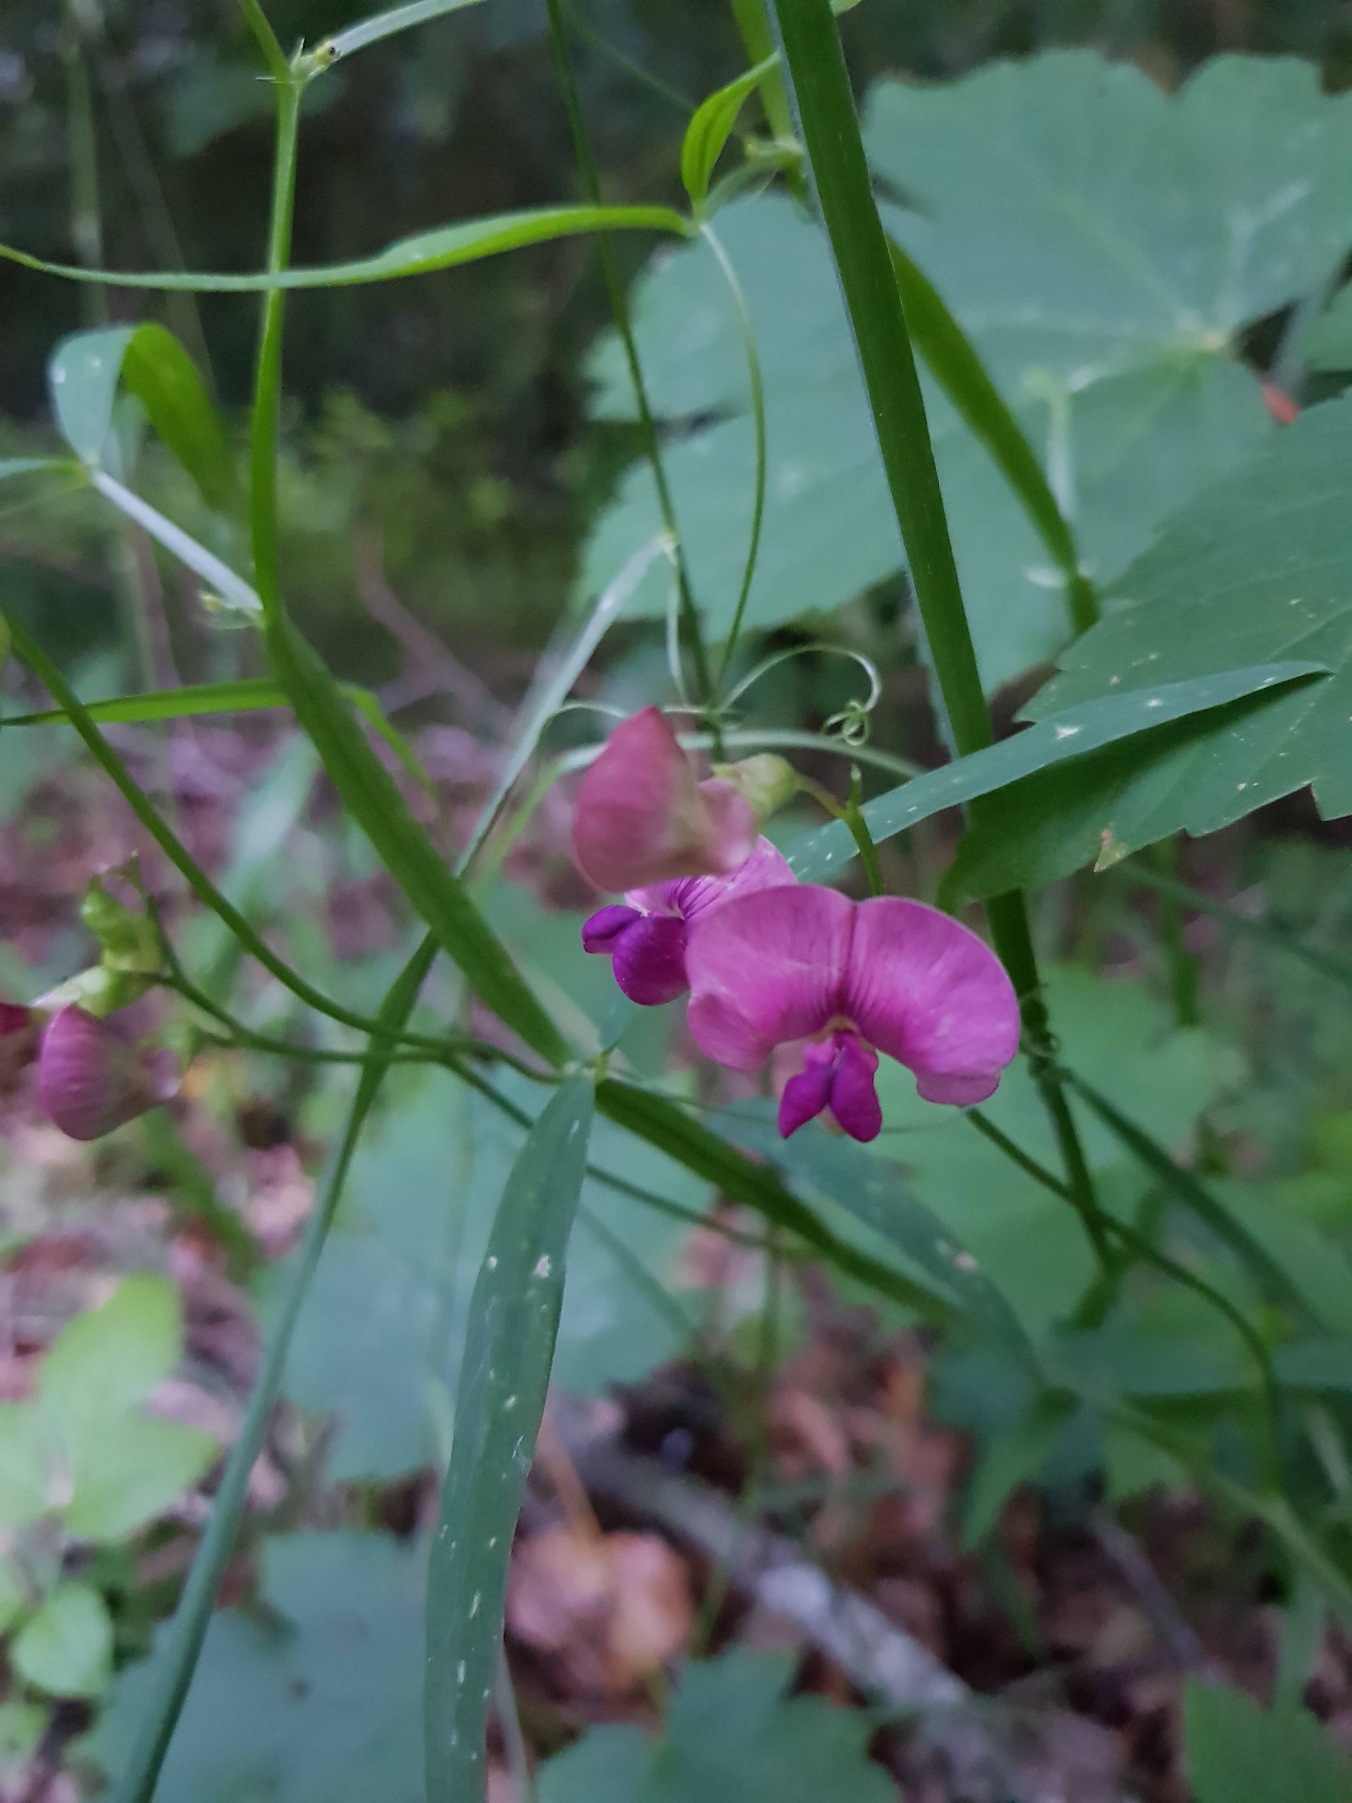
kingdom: Plantae
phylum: Tracheophyta
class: Magnoliopsida
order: Fabales
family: Fabaceae
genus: Lathyrus
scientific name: Lathyrus sylvestris
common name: Skov-fladbælg
